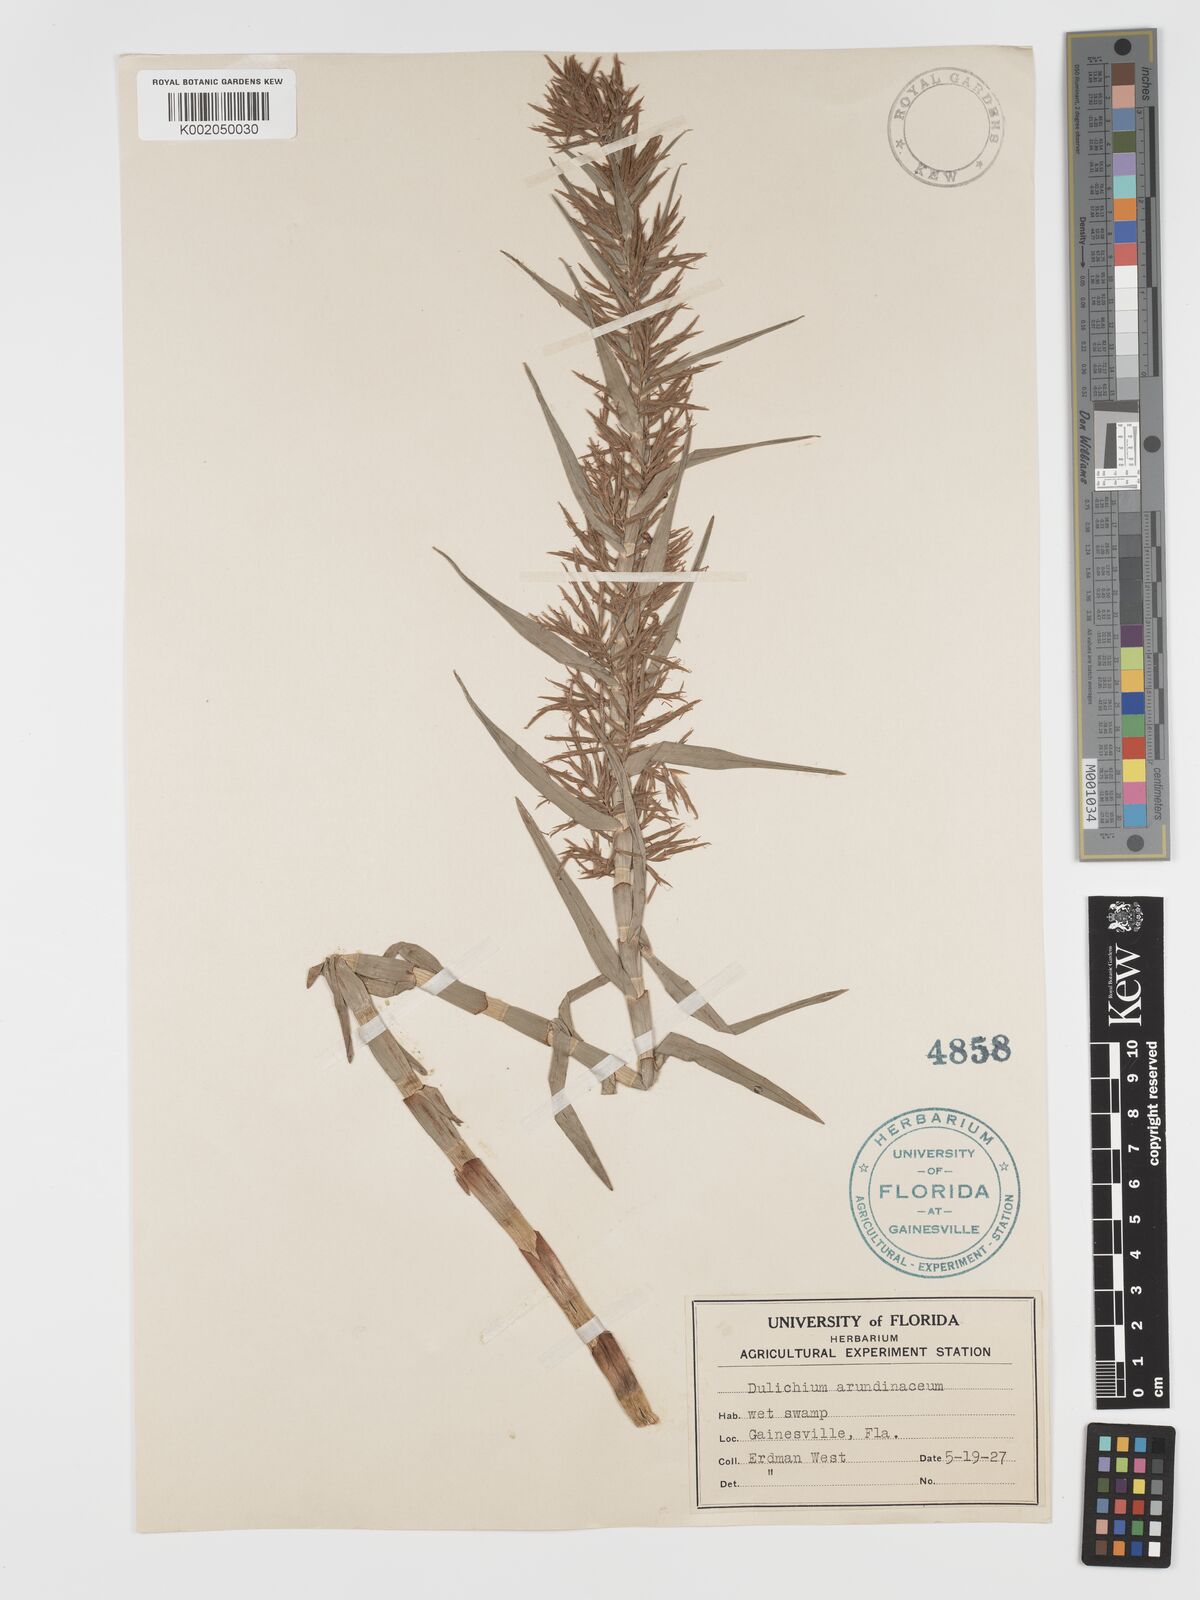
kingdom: Plantae
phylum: Tracheophyta
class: Liliopsida
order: Poales
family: Cyperaceae
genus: Dulichium
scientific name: Dulichium arundinaceum
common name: Three-way sedge
